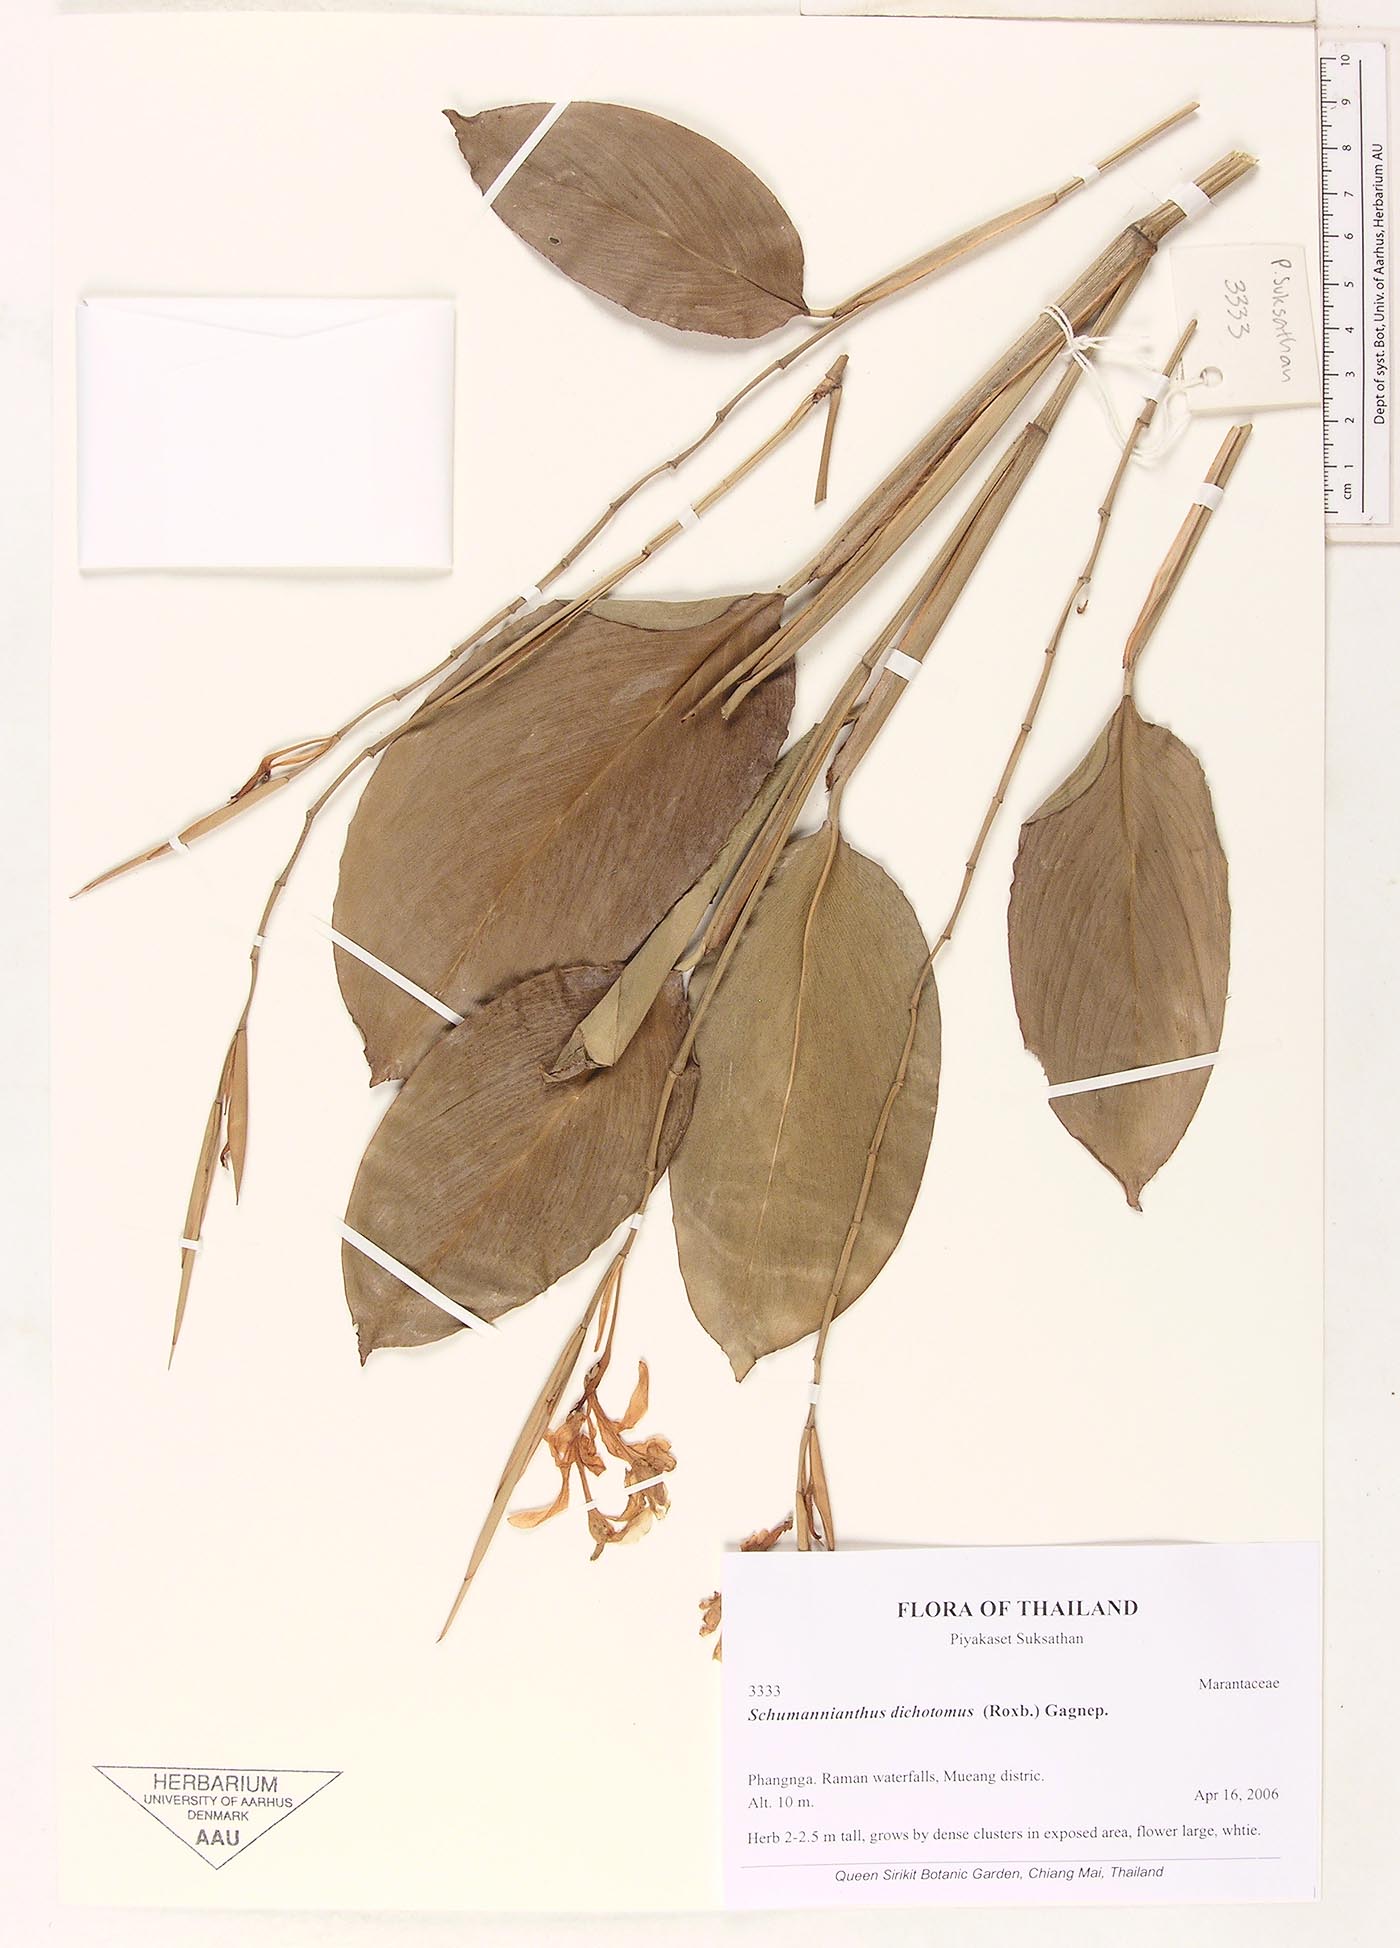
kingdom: Plantae
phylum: Tracheophyta
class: Liliopsida
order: Zingiberales
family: Marantaceae
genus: Schumannianthus
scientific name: Schumannianthus benthamianus
